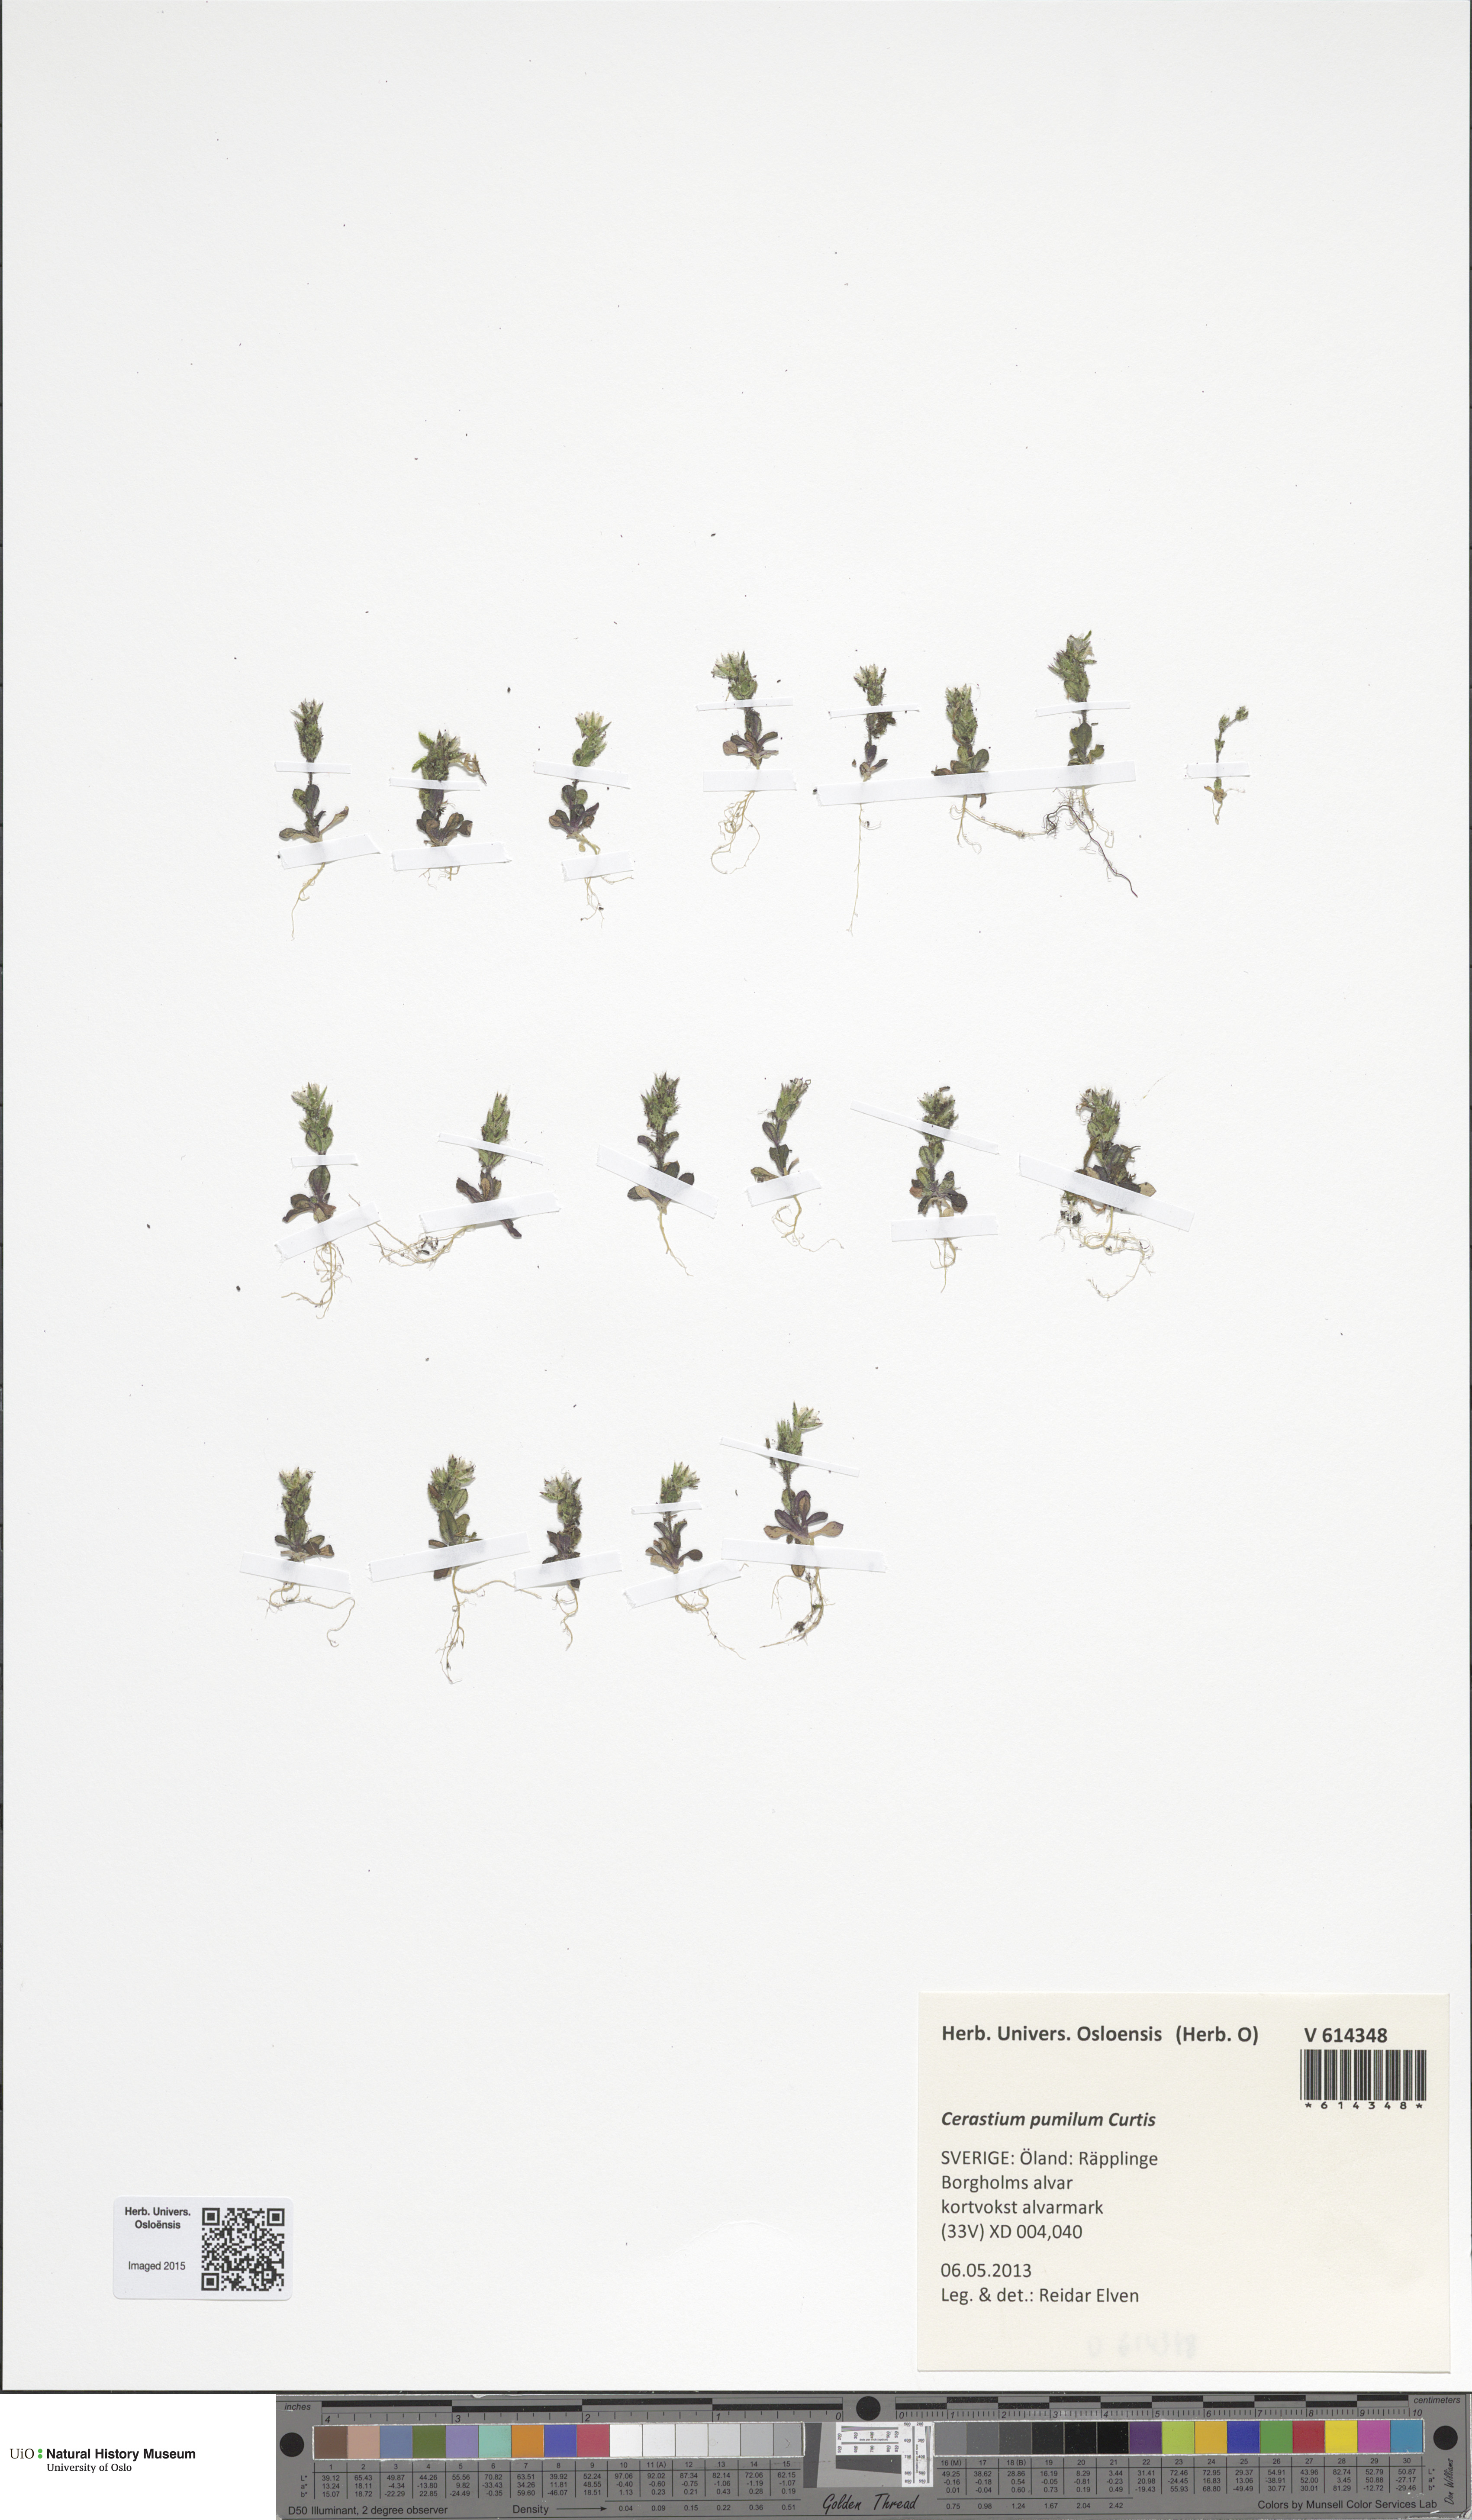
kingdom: Plantae
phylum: Tracheophyta
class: Magnoliopsida
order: Caryophyllales
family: Caryophyllaceae
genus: Cerastium
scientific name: Cerastium pumilum
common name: Dwarf mouse-ear
